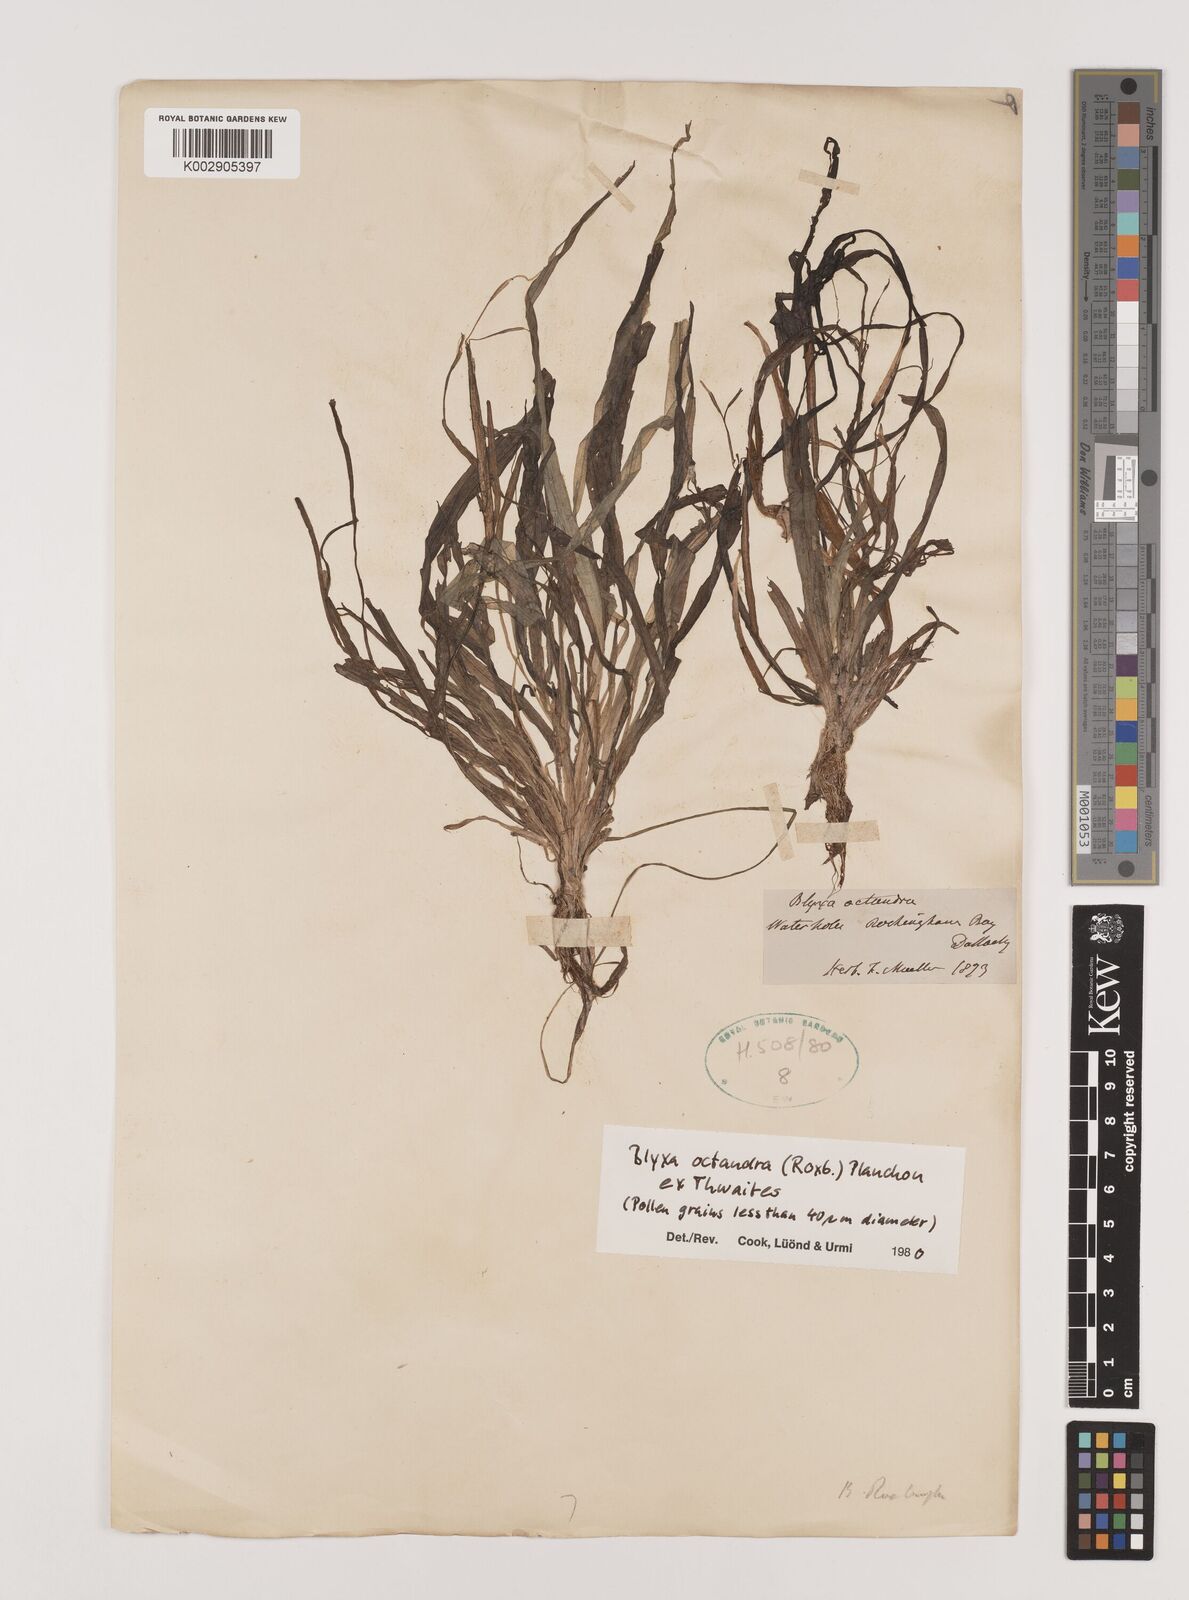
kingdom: Plantae
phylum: Tracheophyta
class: Liliopsida
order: Alismatales
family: Hydrocharitaceae
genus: Blyxa
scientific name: Blyxa octandra
